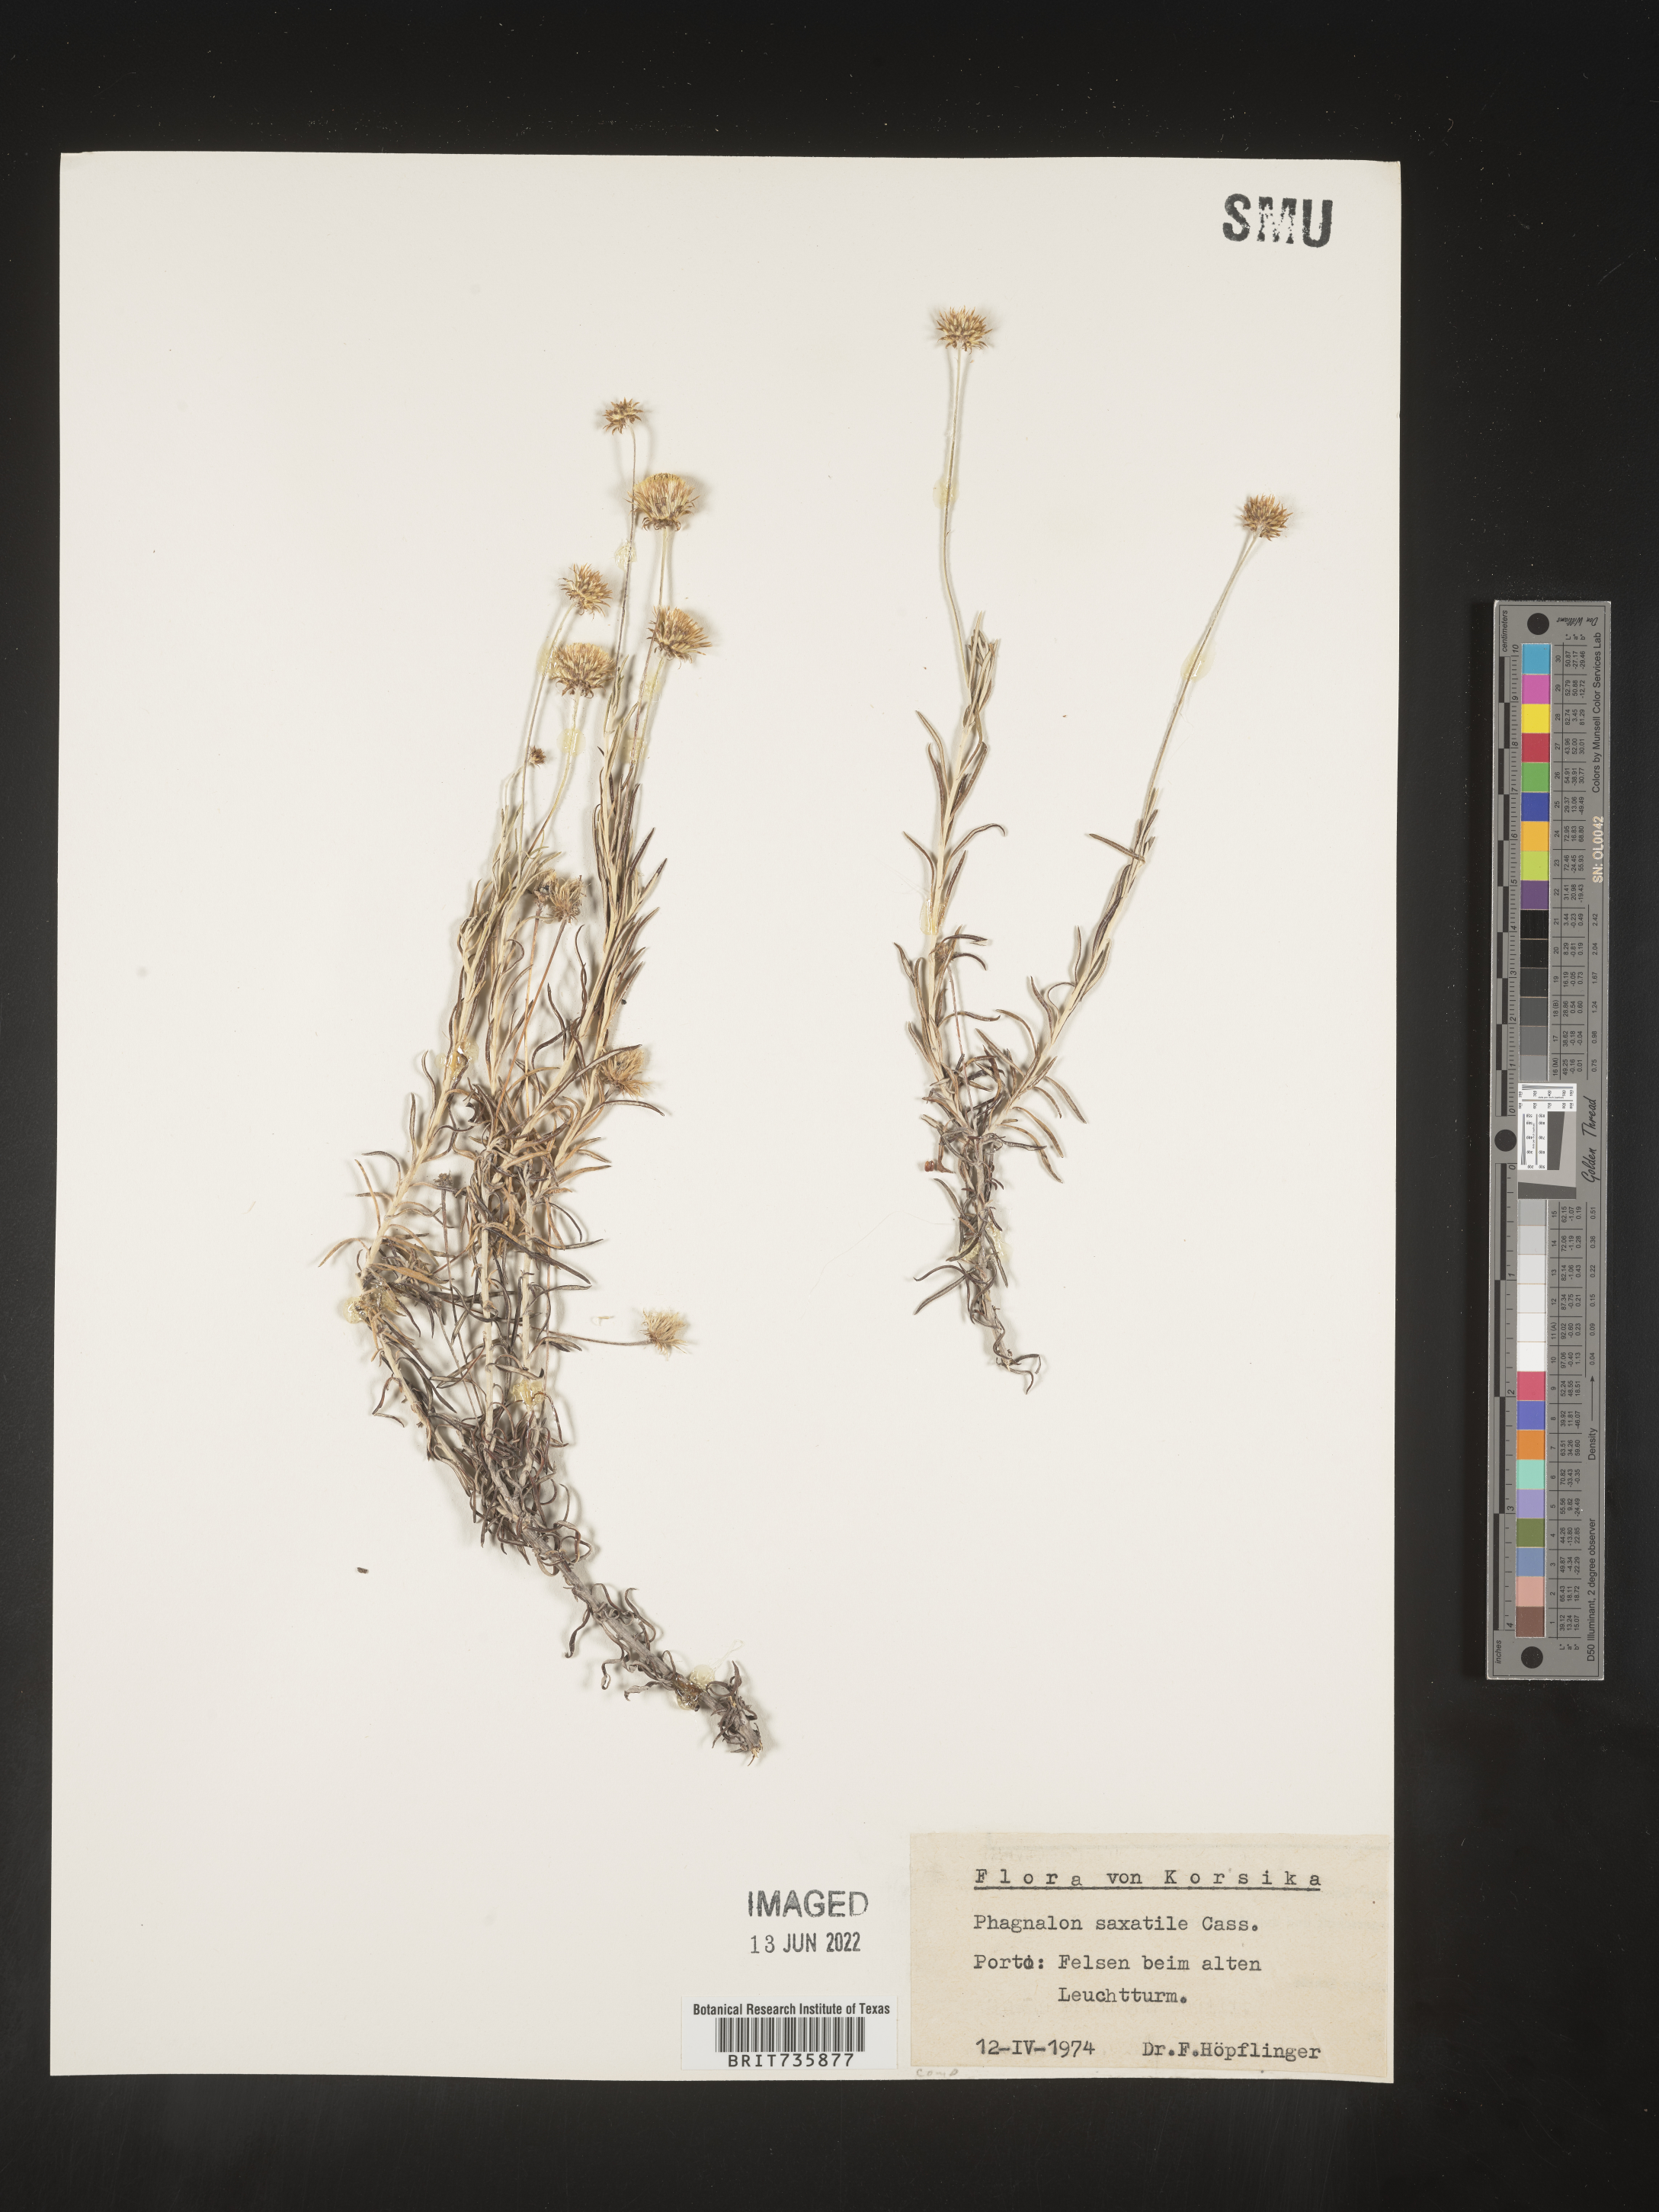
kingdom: Plantae
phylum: Tracheophyta
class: Magnoliopsida
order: Asterales
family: Asteraceae
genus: Phagnalon
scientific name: Phagnalon
